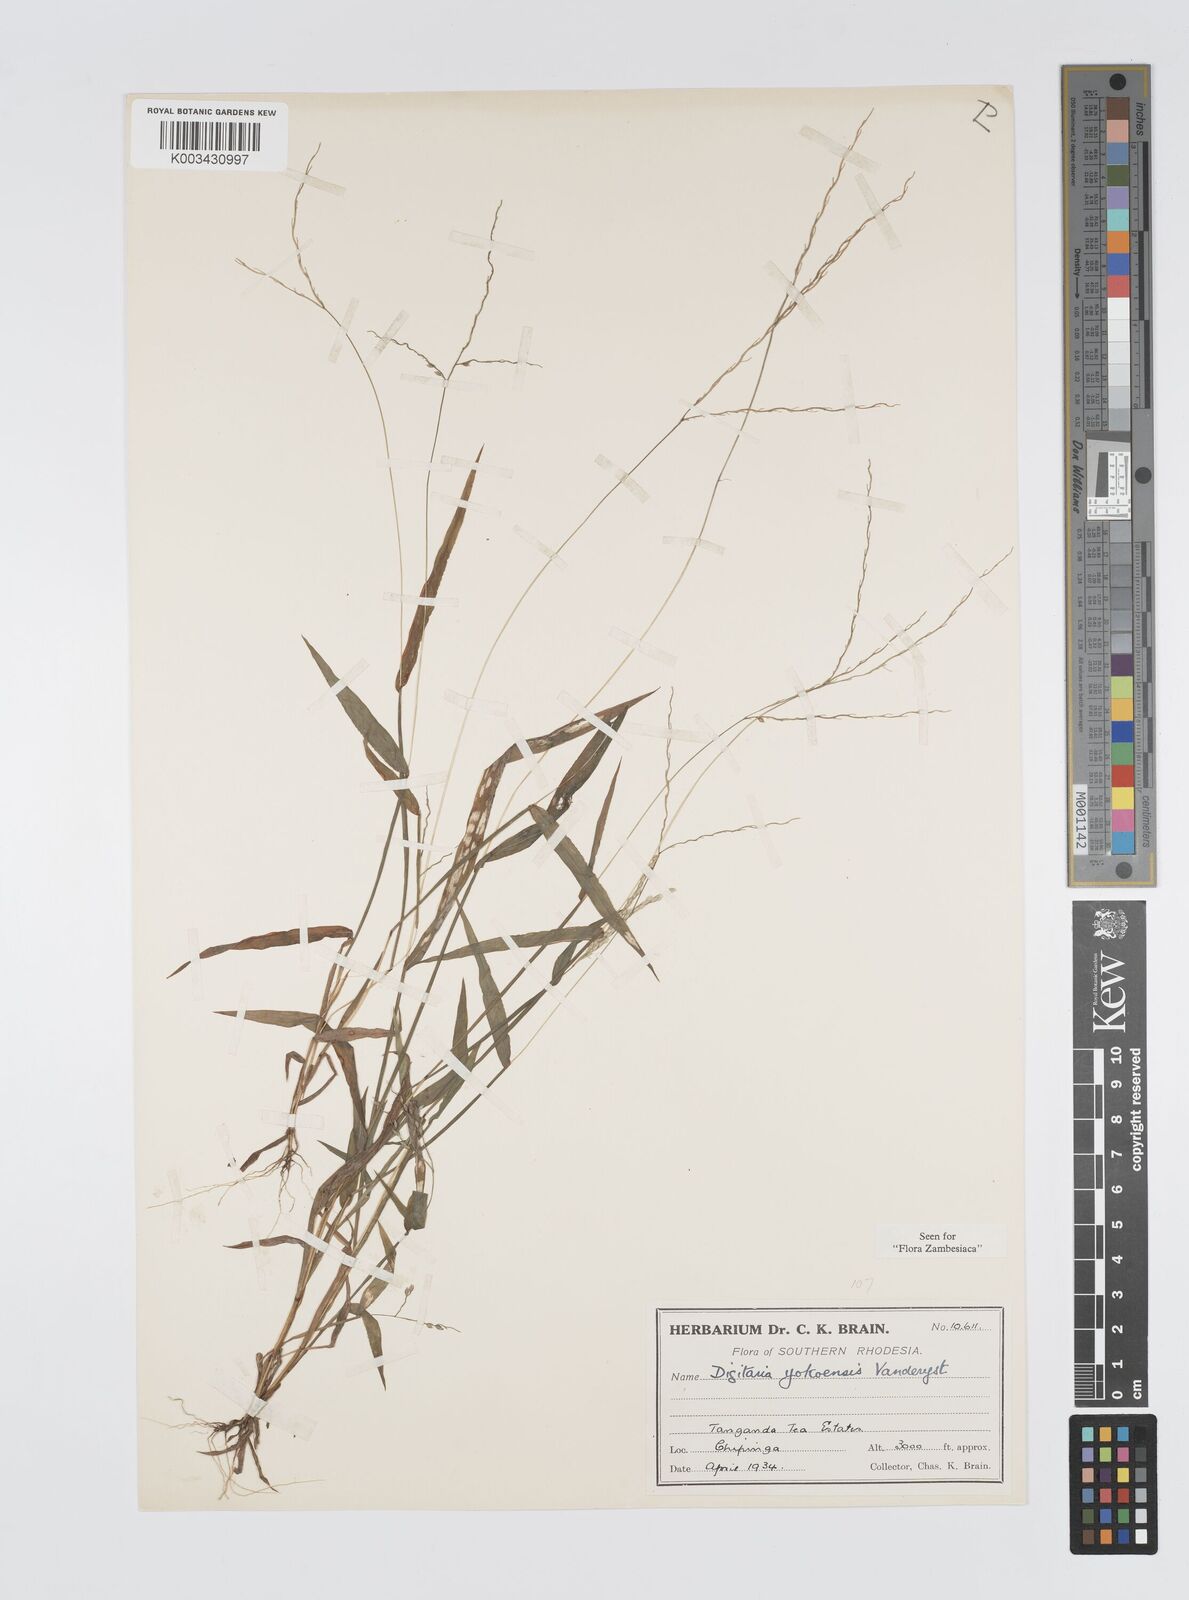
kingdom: Plantae
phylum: Tracheophyta
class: Liliopsida
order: Poales
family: Poaceae
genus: Digitaria
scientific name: Digitaria angolensis
